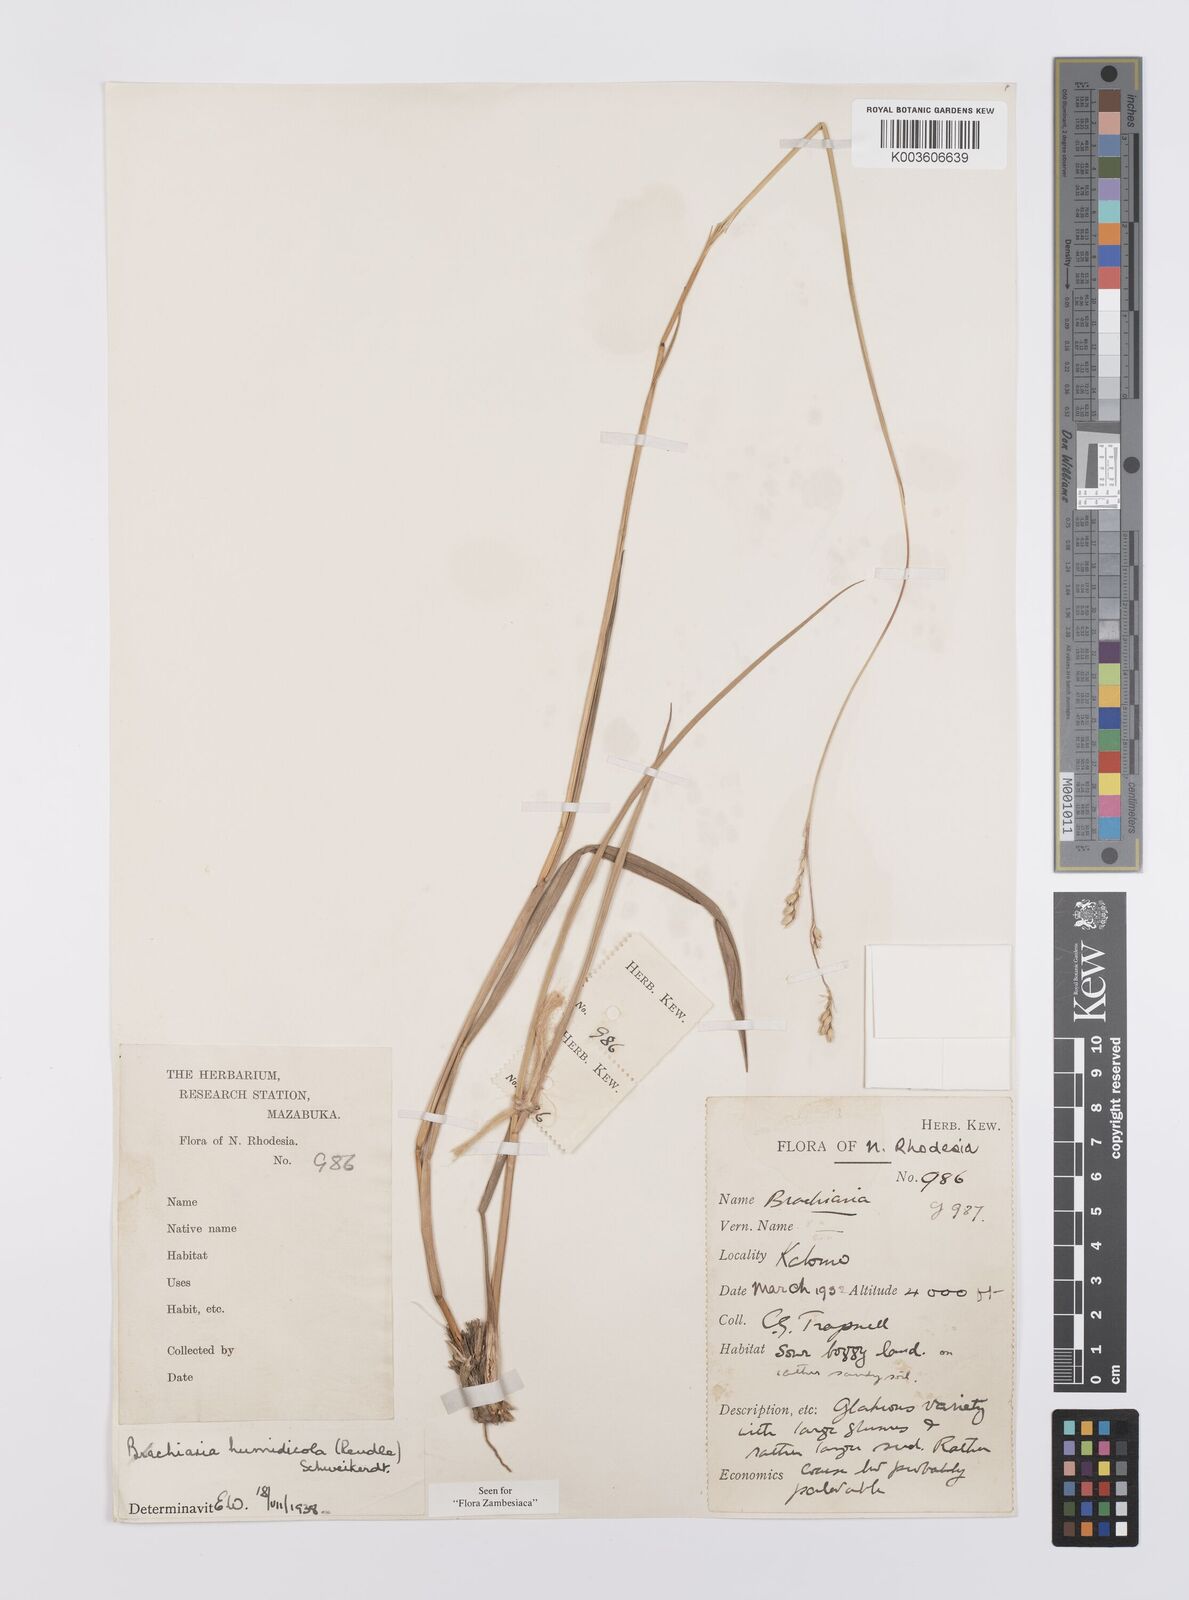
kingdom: Plantae
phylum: Tracheophyta
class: Liliopsida
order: Poales
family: Poaceae
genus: Urochloa
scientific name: Urochloa dictyoneura
